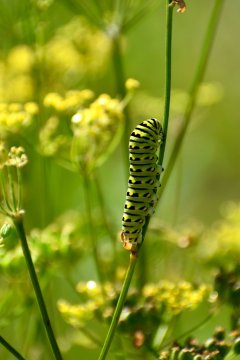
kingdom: Animalia
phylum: Arthropoda
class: Insecta
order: Lepidoptera
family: Papilionidae
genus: Papilio
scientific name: Papilio polyxenes
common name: Black Swallowtail
